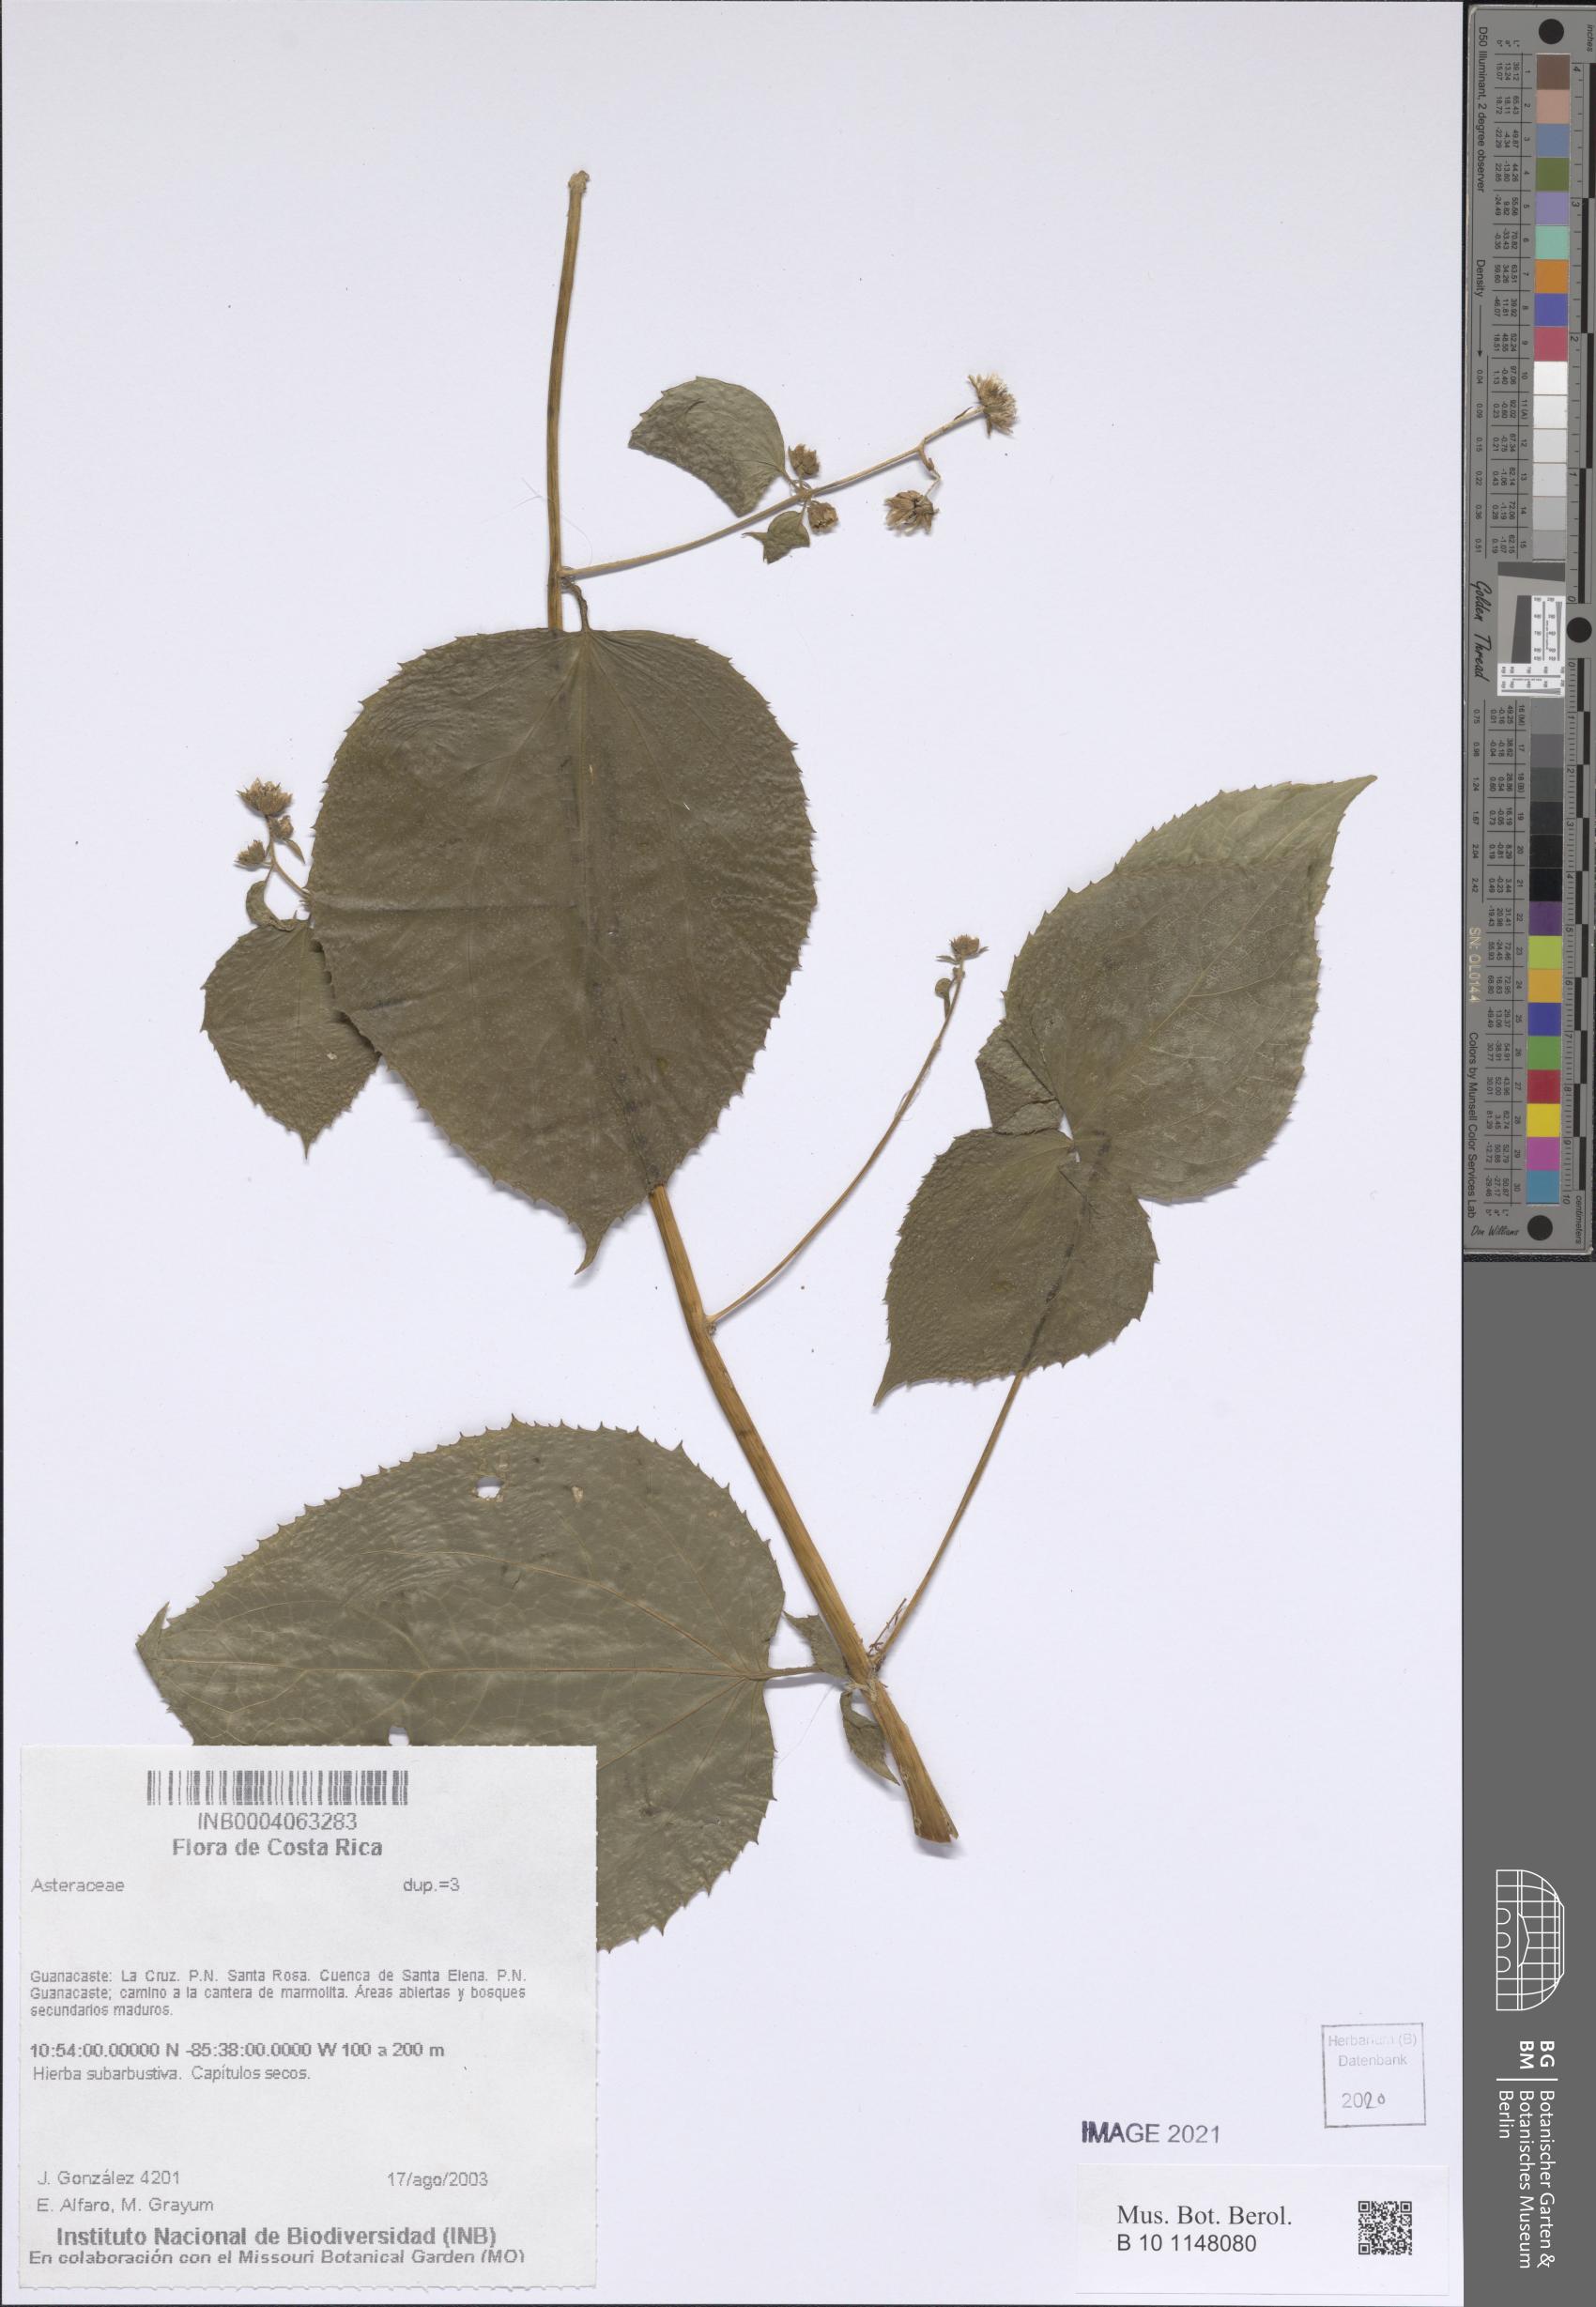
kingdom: Plantae
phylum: Tracheophyta
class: Magnoliopsida
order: Asterales
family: Asteraceae
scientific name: Asteraceae
